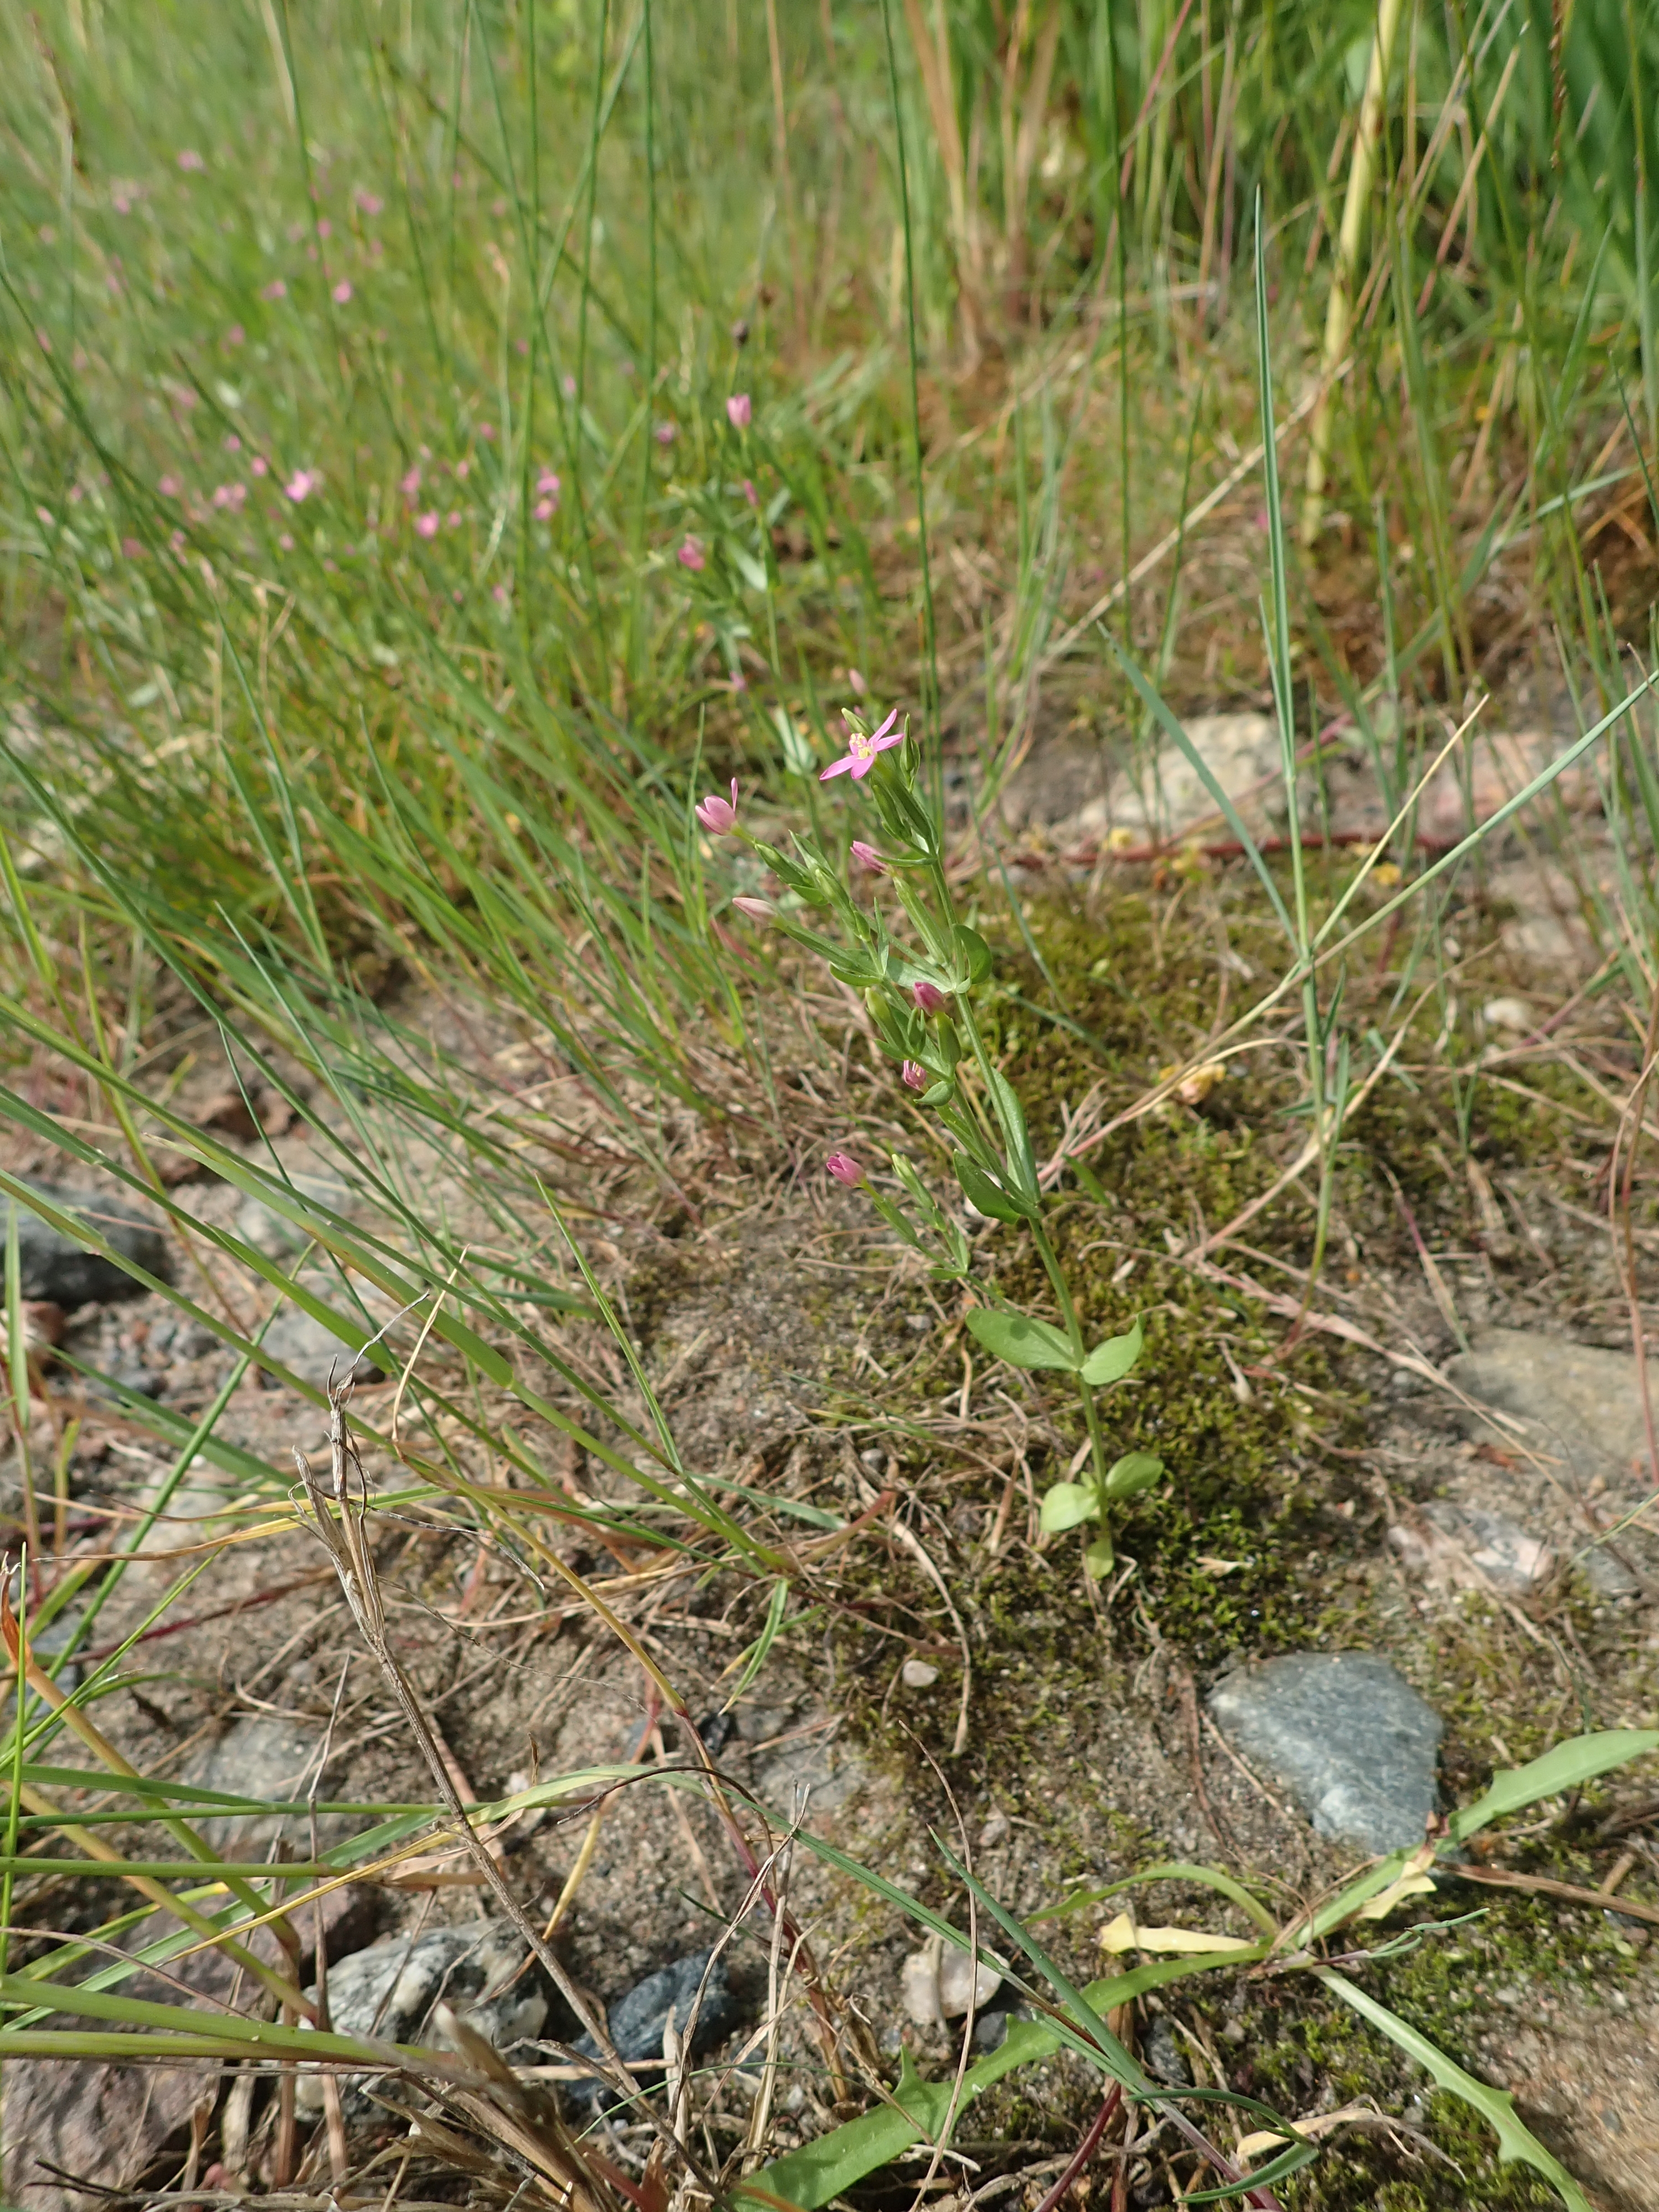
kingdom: Plantae
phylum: Tracheophyta
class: Magnoliopsida
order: Gentianales
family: Gentianaceae
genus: Centaurium
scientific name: Centaurium pulchellum
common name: Lesser centaury
